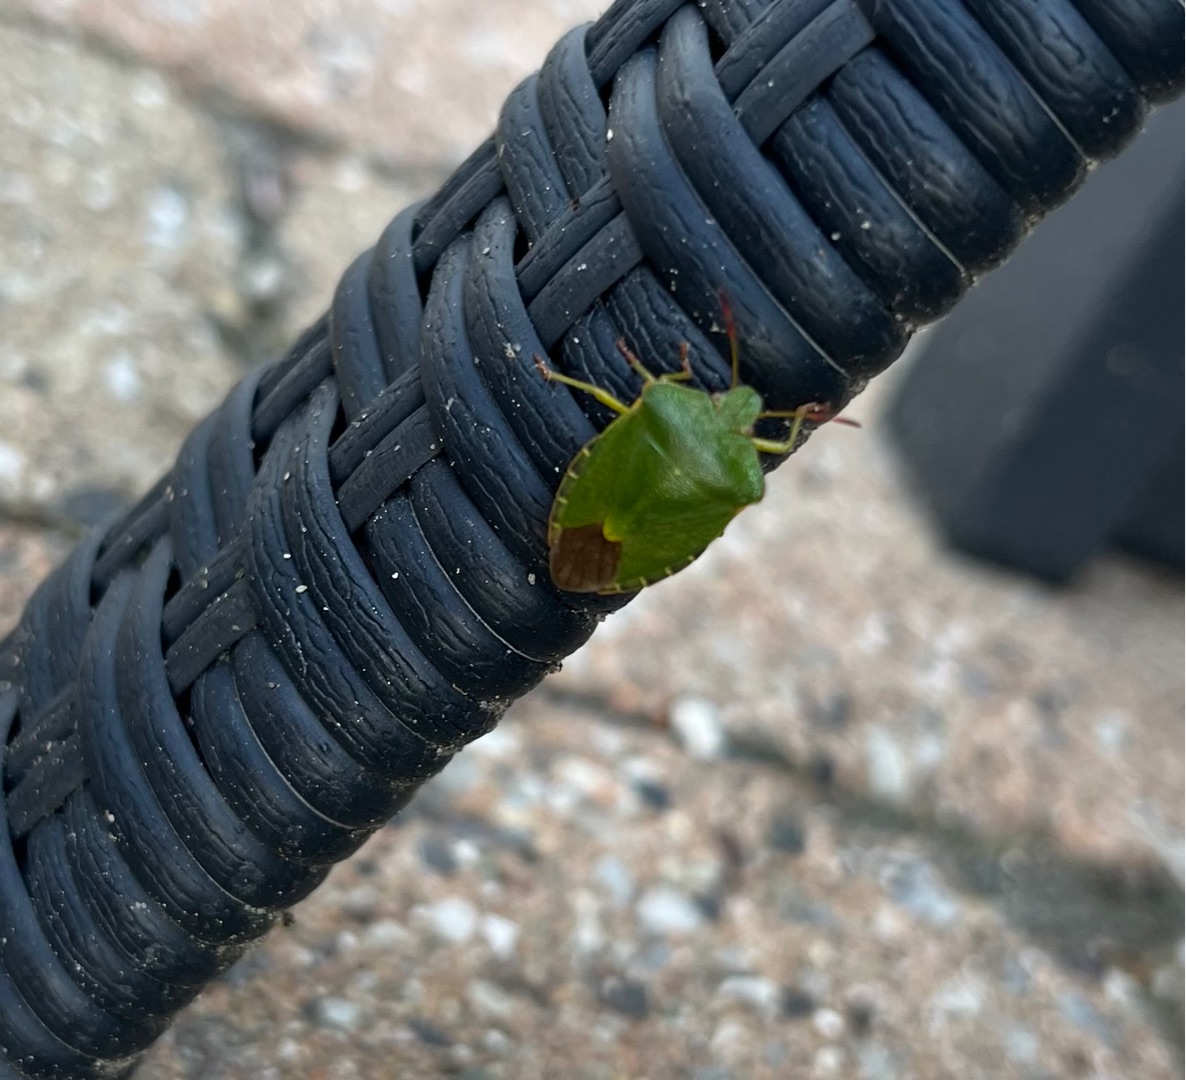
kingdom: Animalia
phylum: Arthropoda
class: Insecta
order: Hemiptera
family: Pentatomidae
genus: Palomena
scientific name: Palomena prasina
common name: Grøn bredtæge
